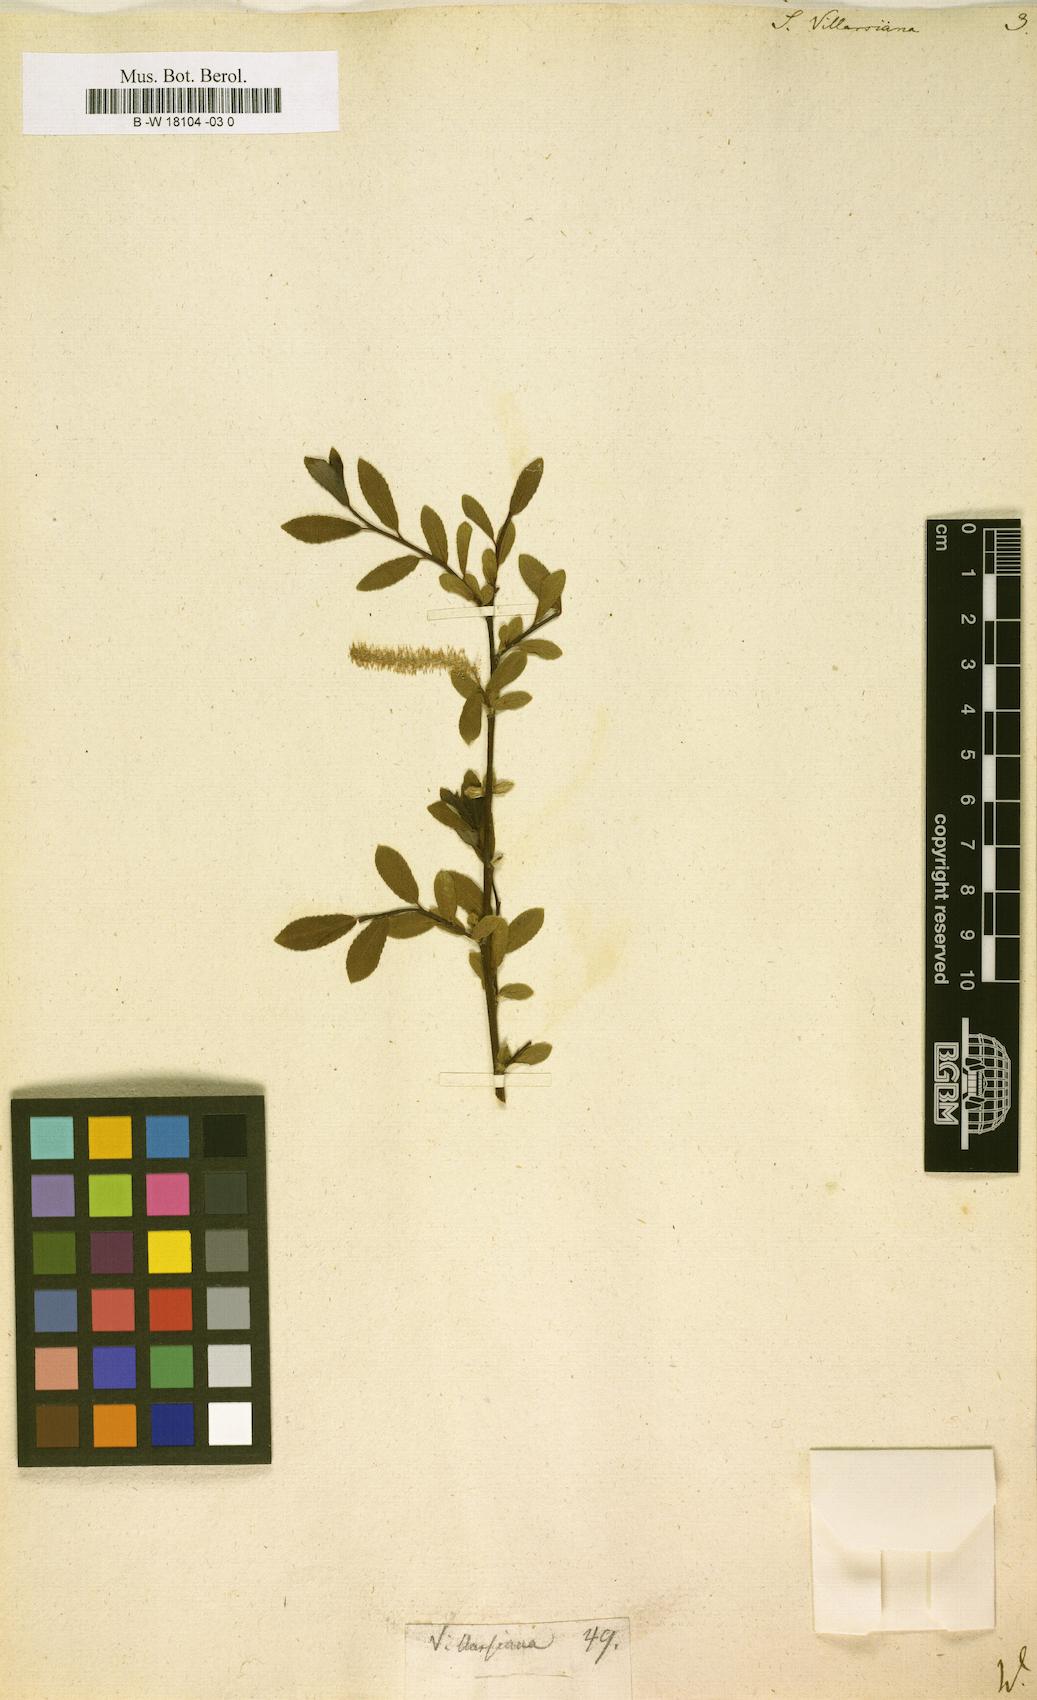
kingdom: Plantae
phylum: Tracheophyta
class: Magnoliopsida
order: Malpighiales
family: Salicaceae
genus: Salix
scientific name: Salix triandra
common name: Almond willow
